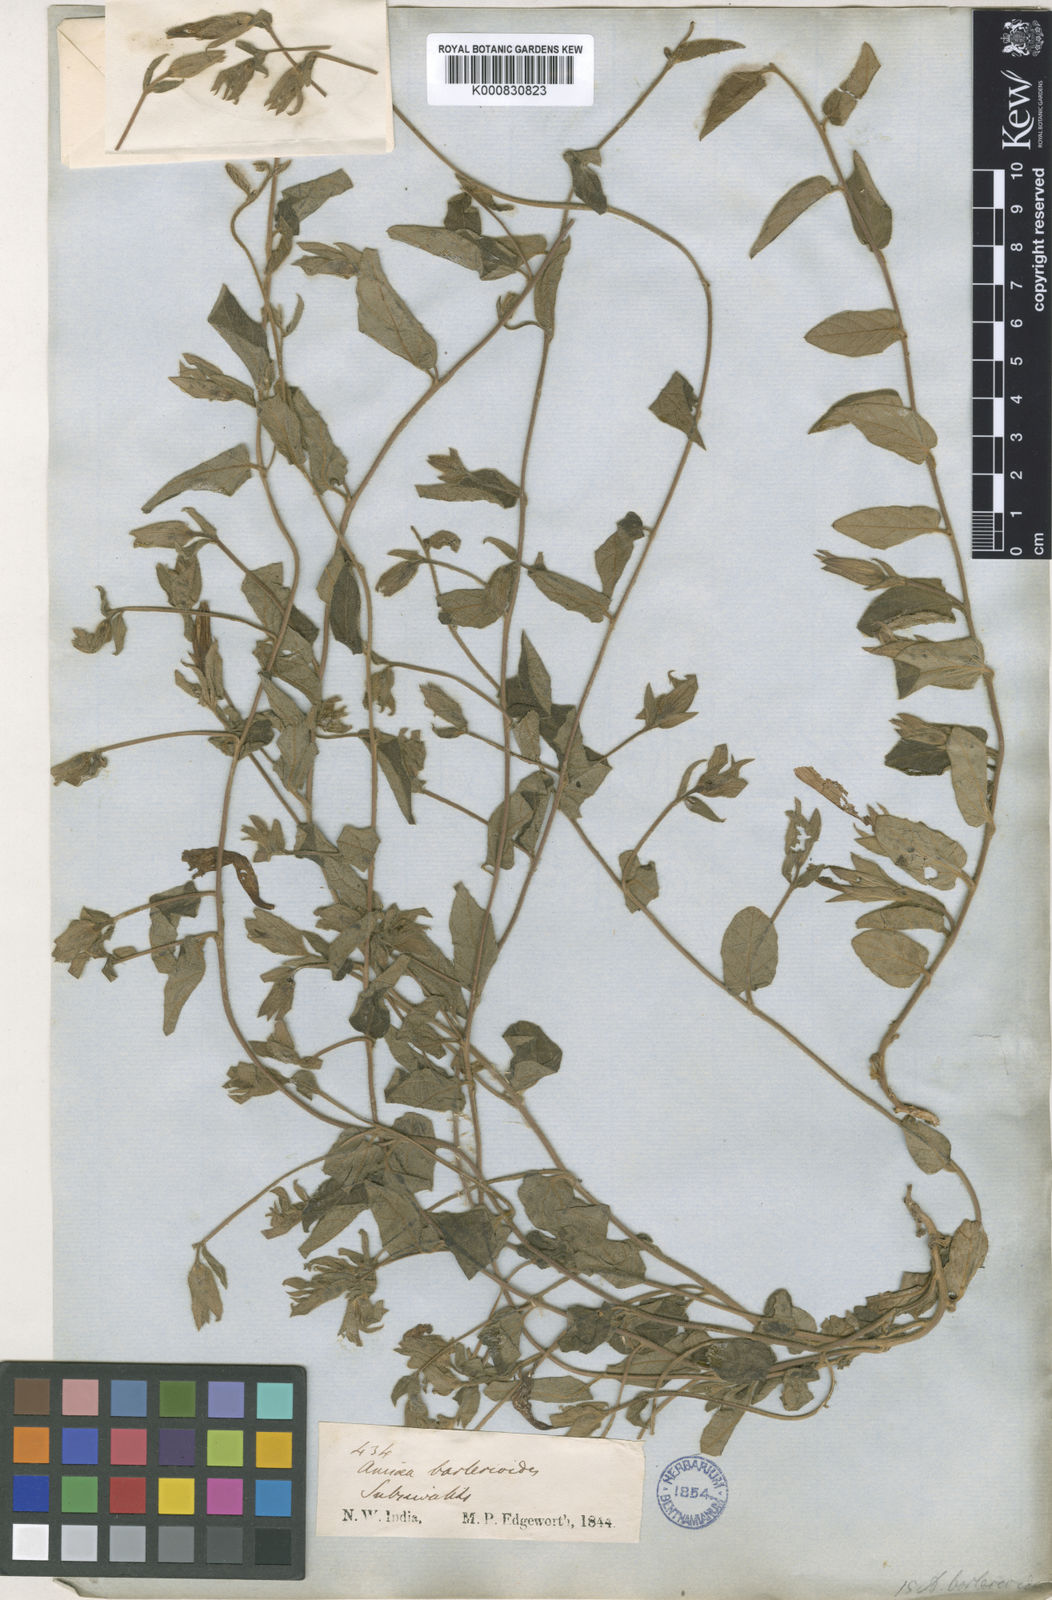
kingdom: Plantae
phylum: Tracheophyta
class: Magnoliopsida
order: Solanales
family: Convolvulaceae
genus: Ipomoea
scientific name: Ipomoea barlerioides
